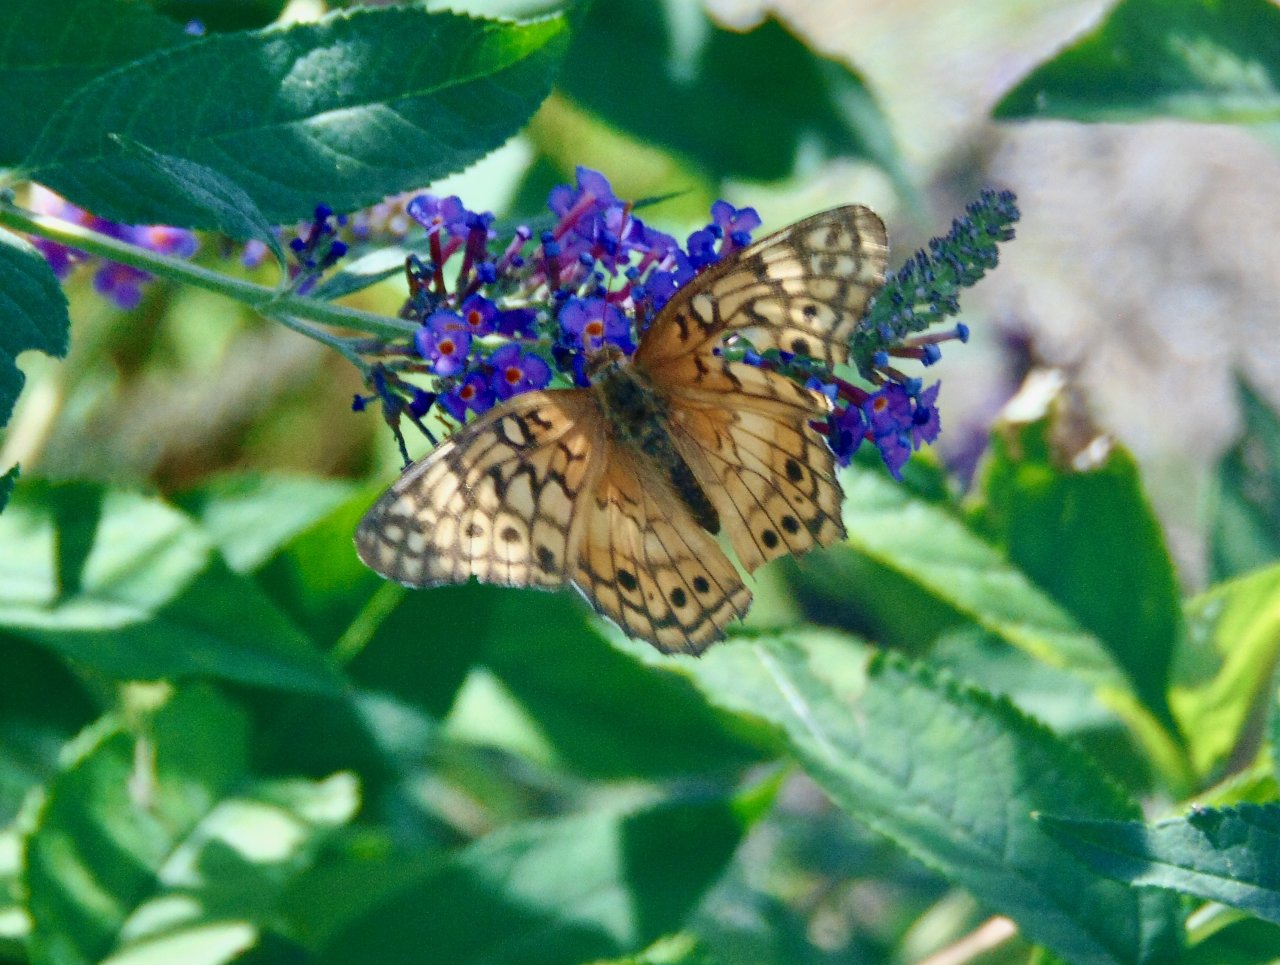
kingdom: Animalia
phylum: Arthropoda
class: Insecta
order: Lepidoptera
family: Nymphalidae
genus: Euptoieta
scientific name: Euptoieta claudia
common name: Variegated Fritillary
